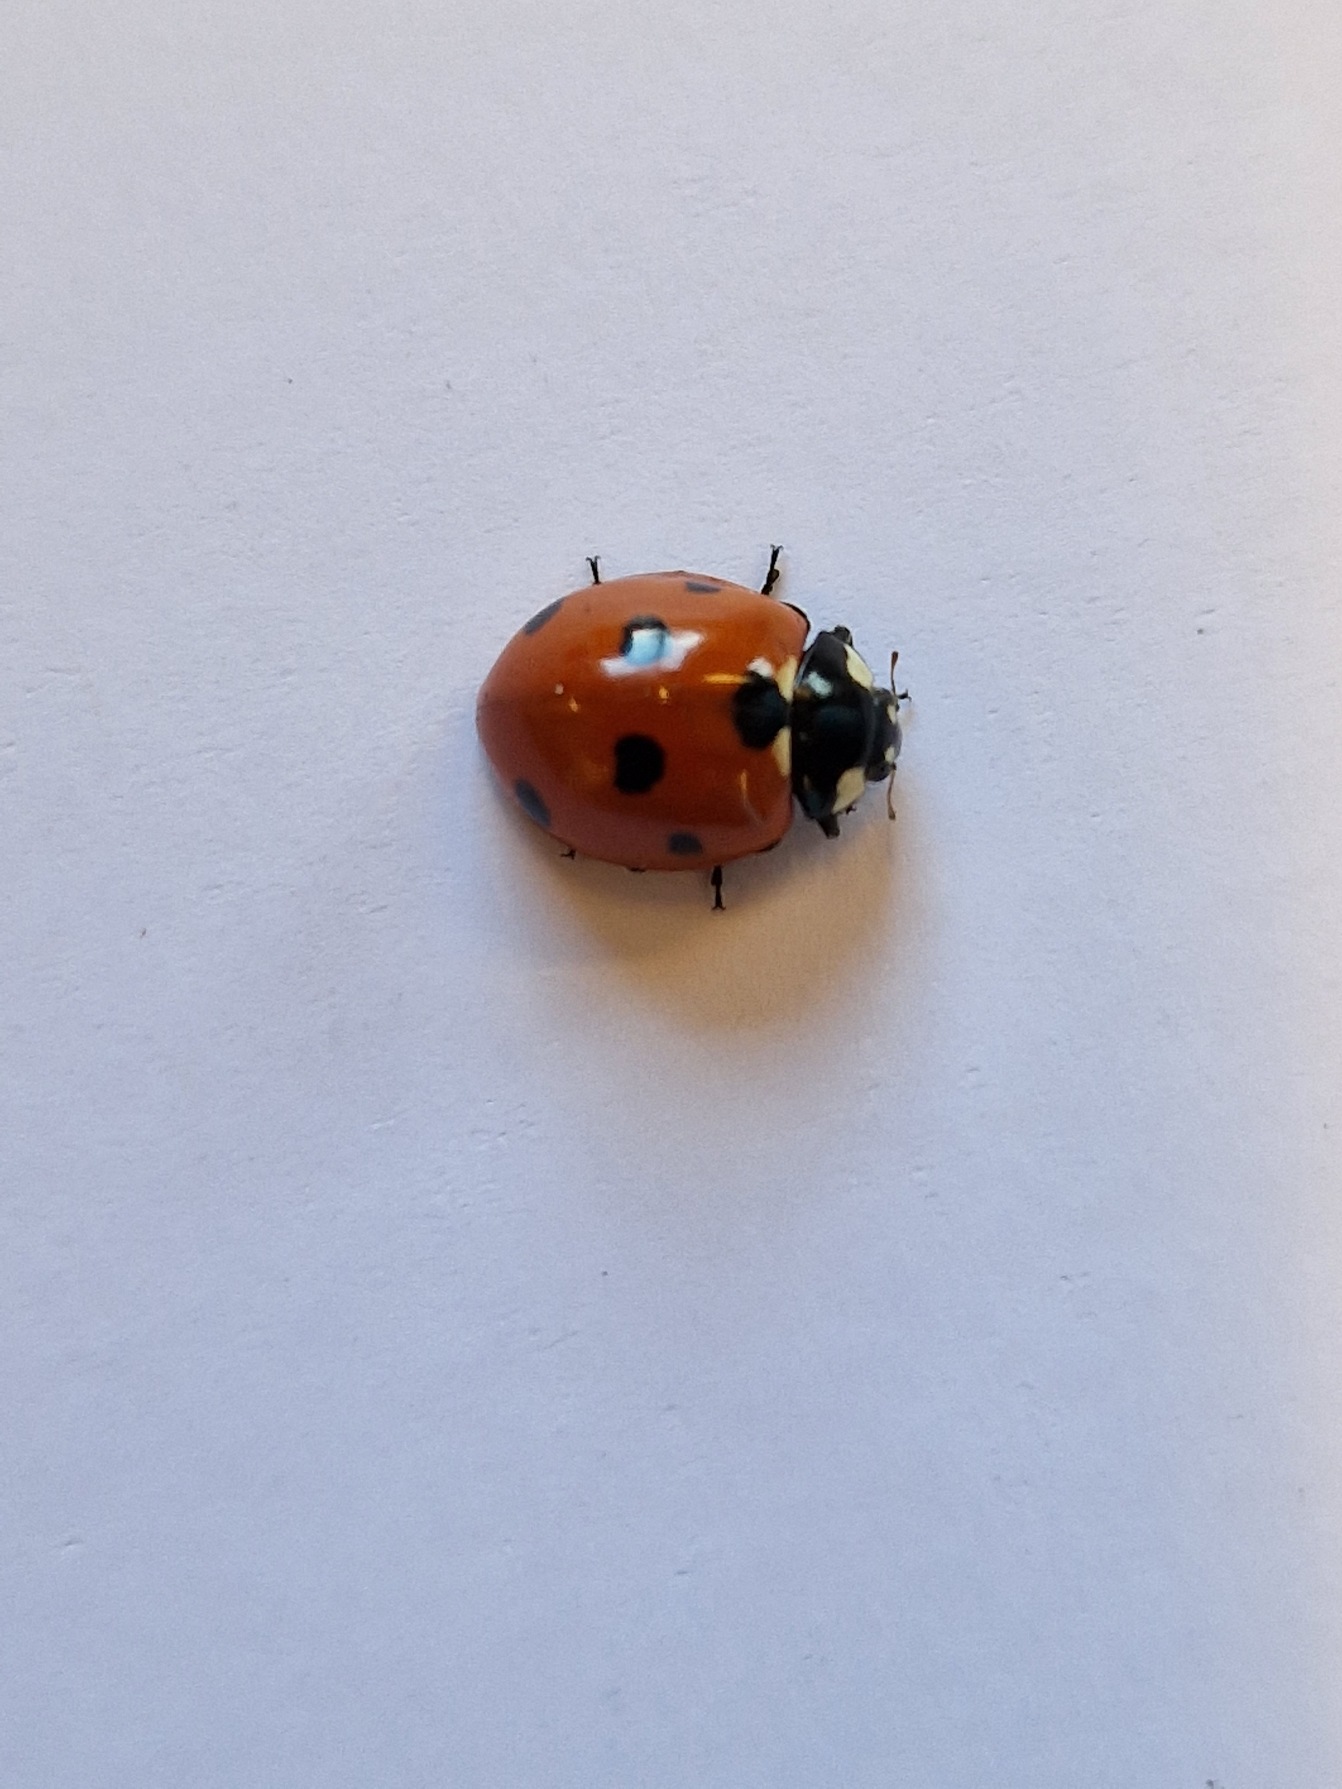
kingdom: Animalia
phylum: Arthropoda
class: Insecta
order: Coleoptera
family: Coccinellidae
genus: Coccinella
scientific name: Coccinella septempunctata
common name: Syvplettet mariehøne
